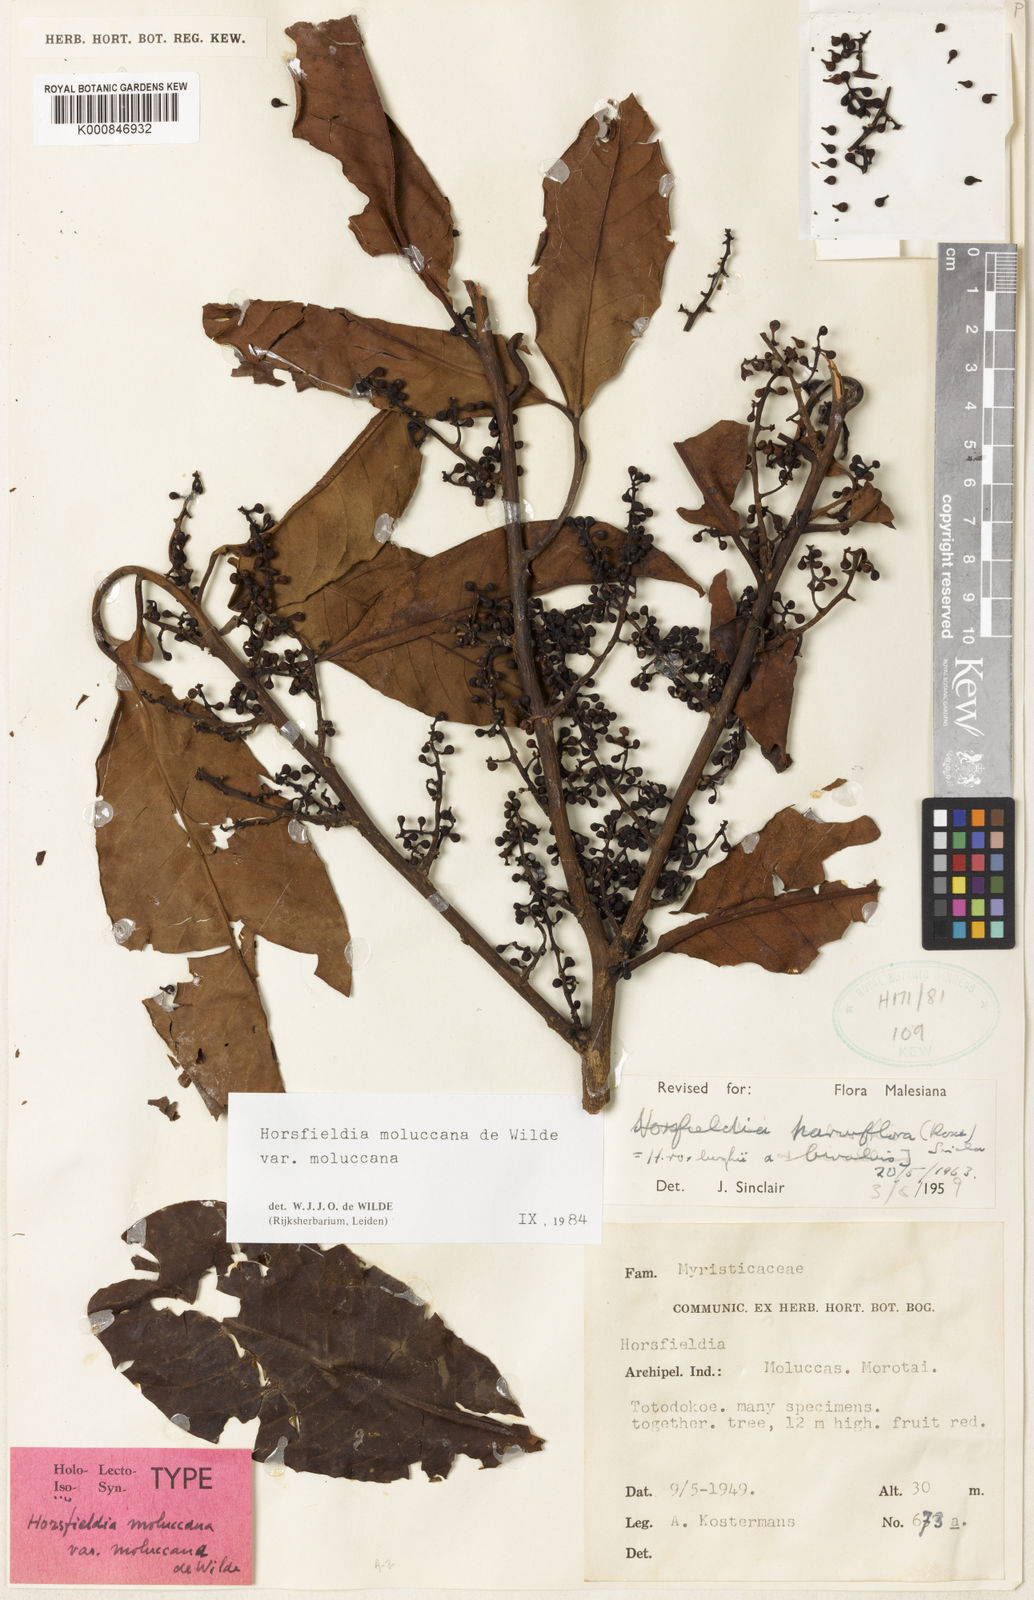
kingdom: Plantae
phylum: Tracheophyta
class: Magnoliopsida
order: Magnoliales
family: Myristicaceae
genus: Horsfieldia
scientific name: Horsfieldia moluccana
